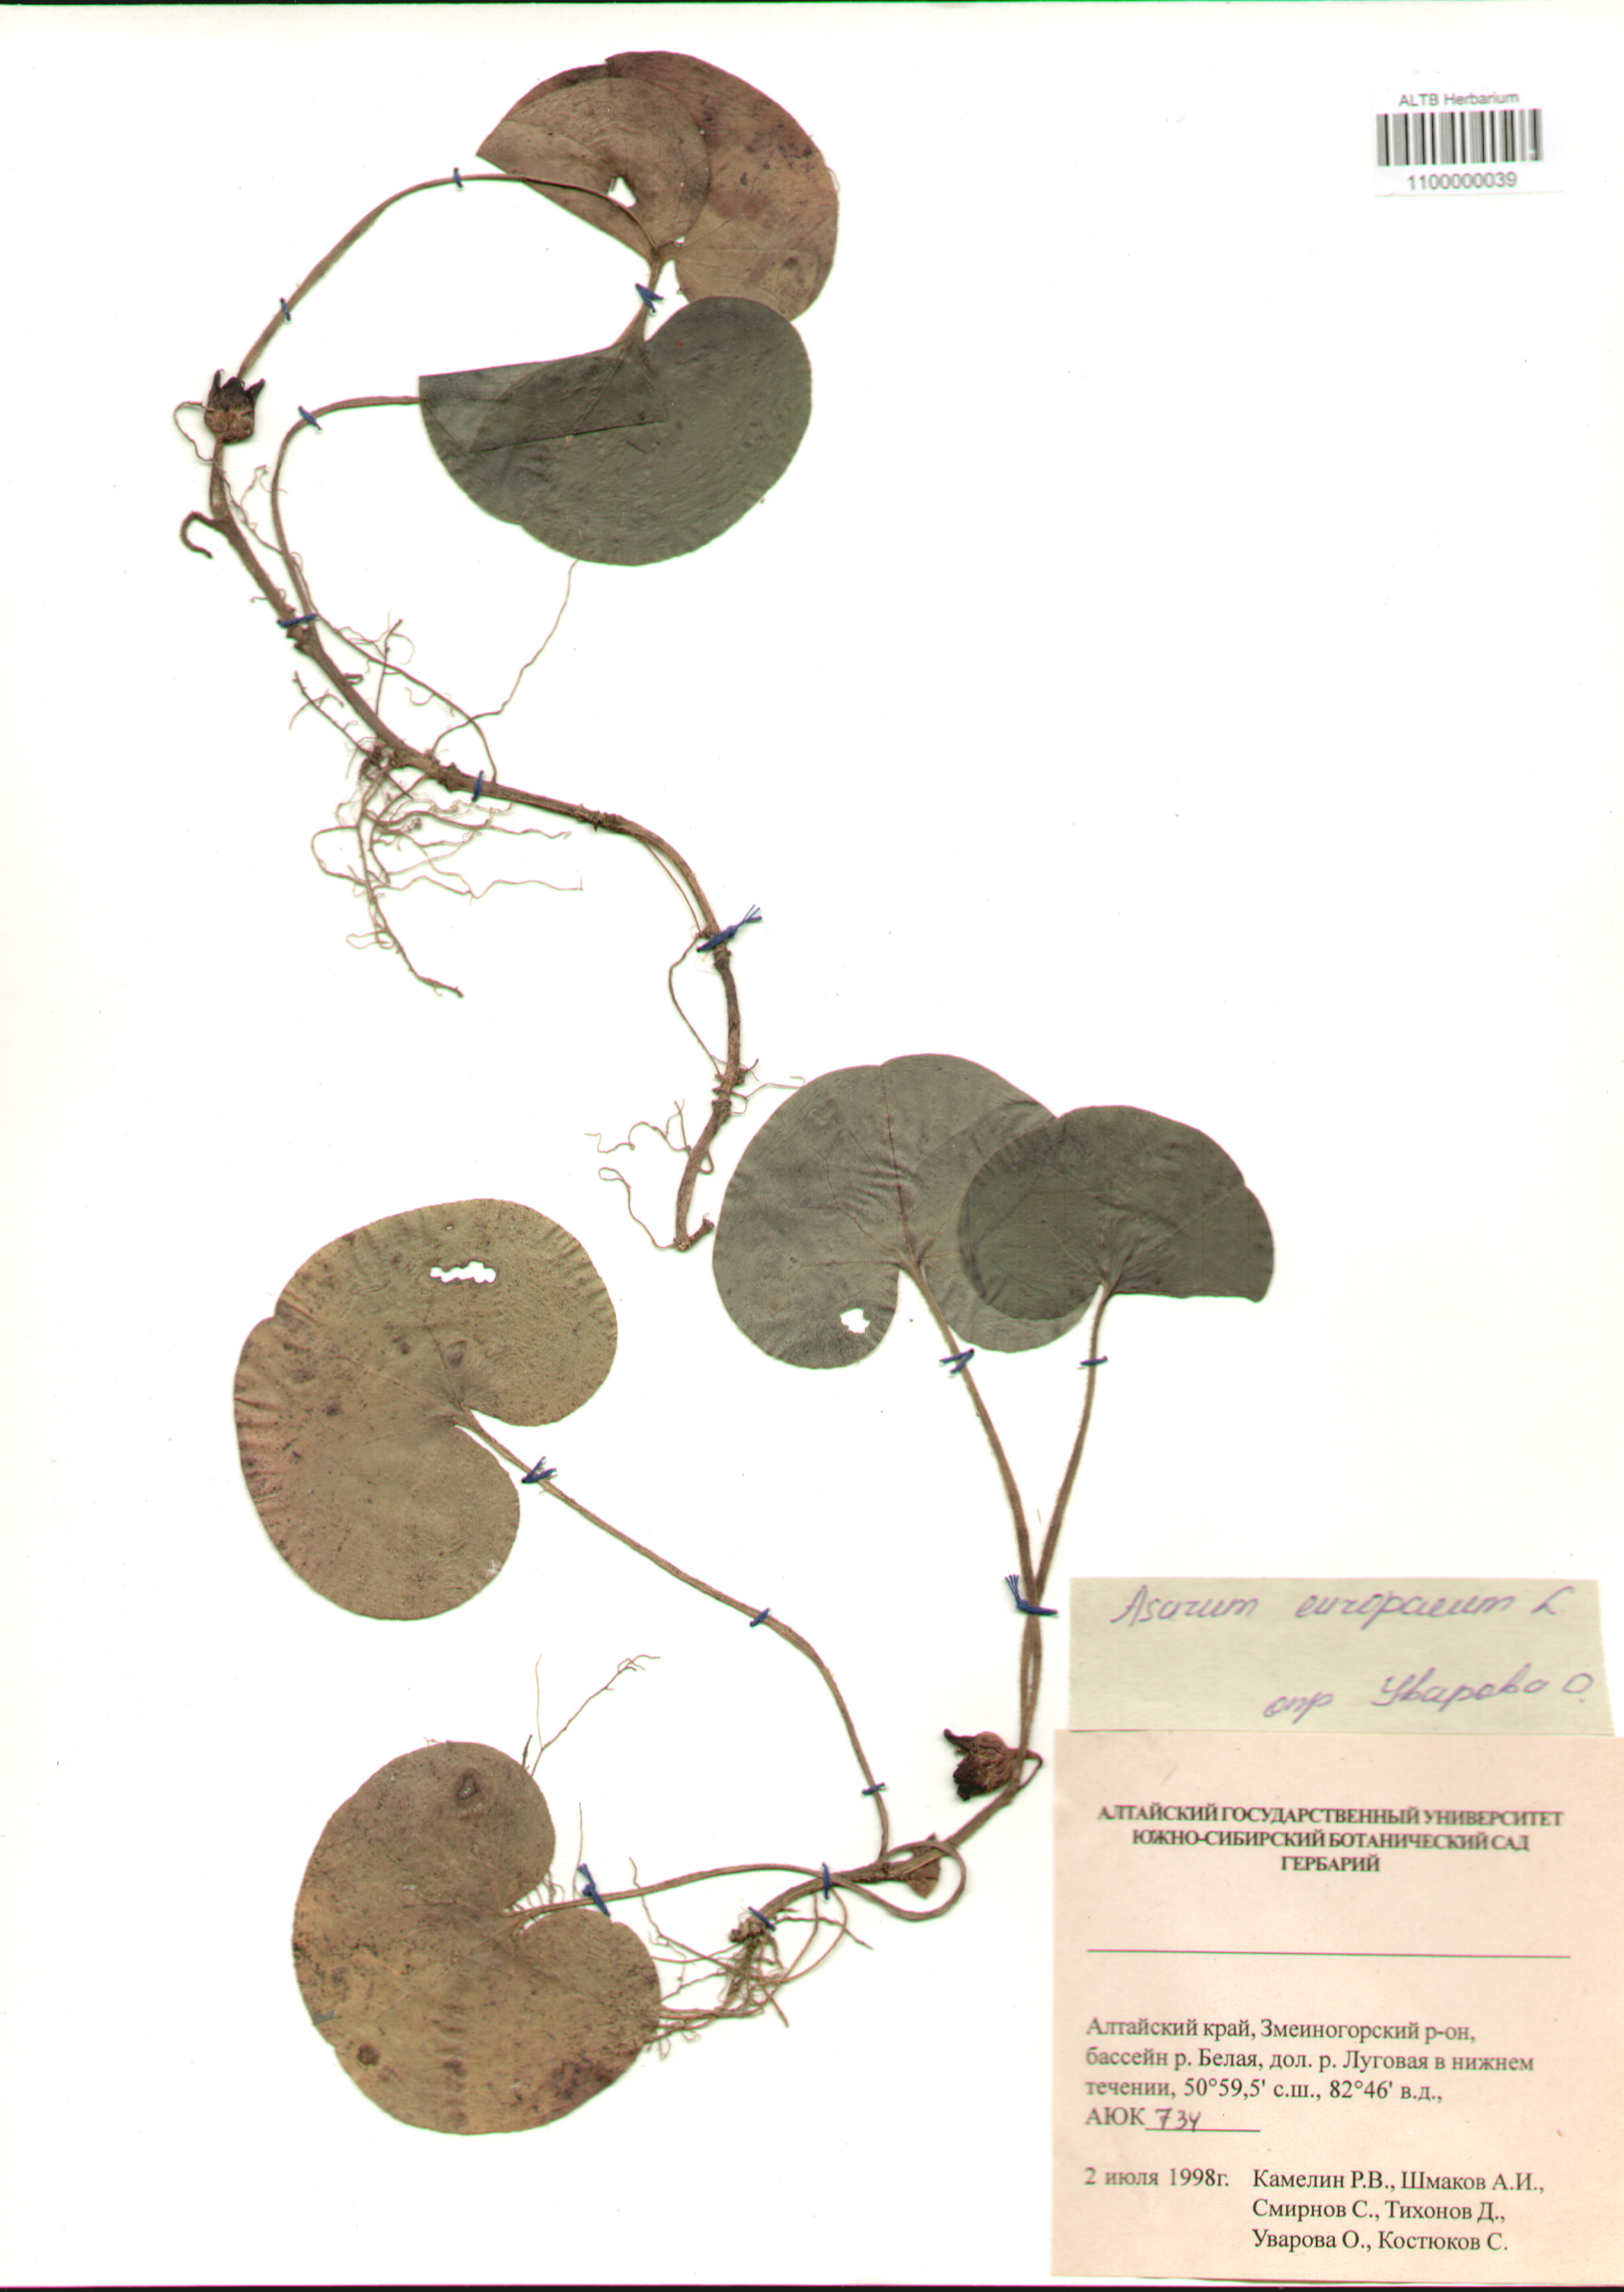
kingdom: Plantae
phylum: Tracheophyta
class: Magnoliopsida
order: Piperales
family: Aristolochiaceae
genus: Asarum
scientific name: Asarum europaeum
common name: Asarabacca
